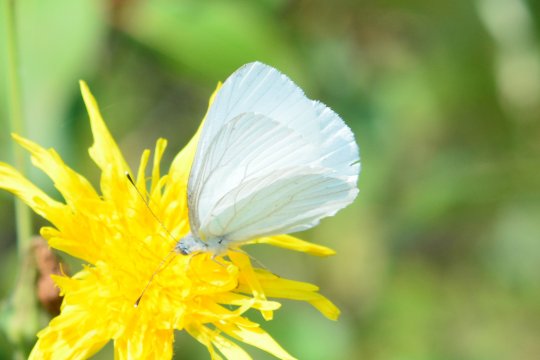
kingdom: Animalia
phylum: Arthropoda
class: Insecta
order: Lepidoptera
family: Pieridae
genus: Pieris
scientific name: Pieris oleracea
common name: Mustard White
